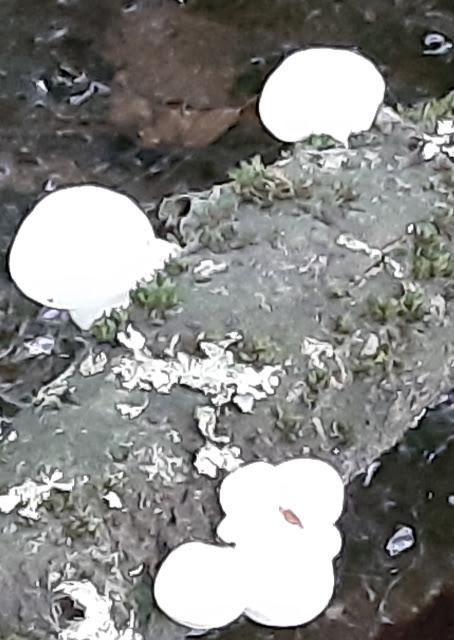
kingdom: Fungi
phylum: Basidiomycota
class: Agaricomycetes
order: Agaricales
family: Physalacriaceae
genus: Mucidula
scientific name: Mucidula mucida
